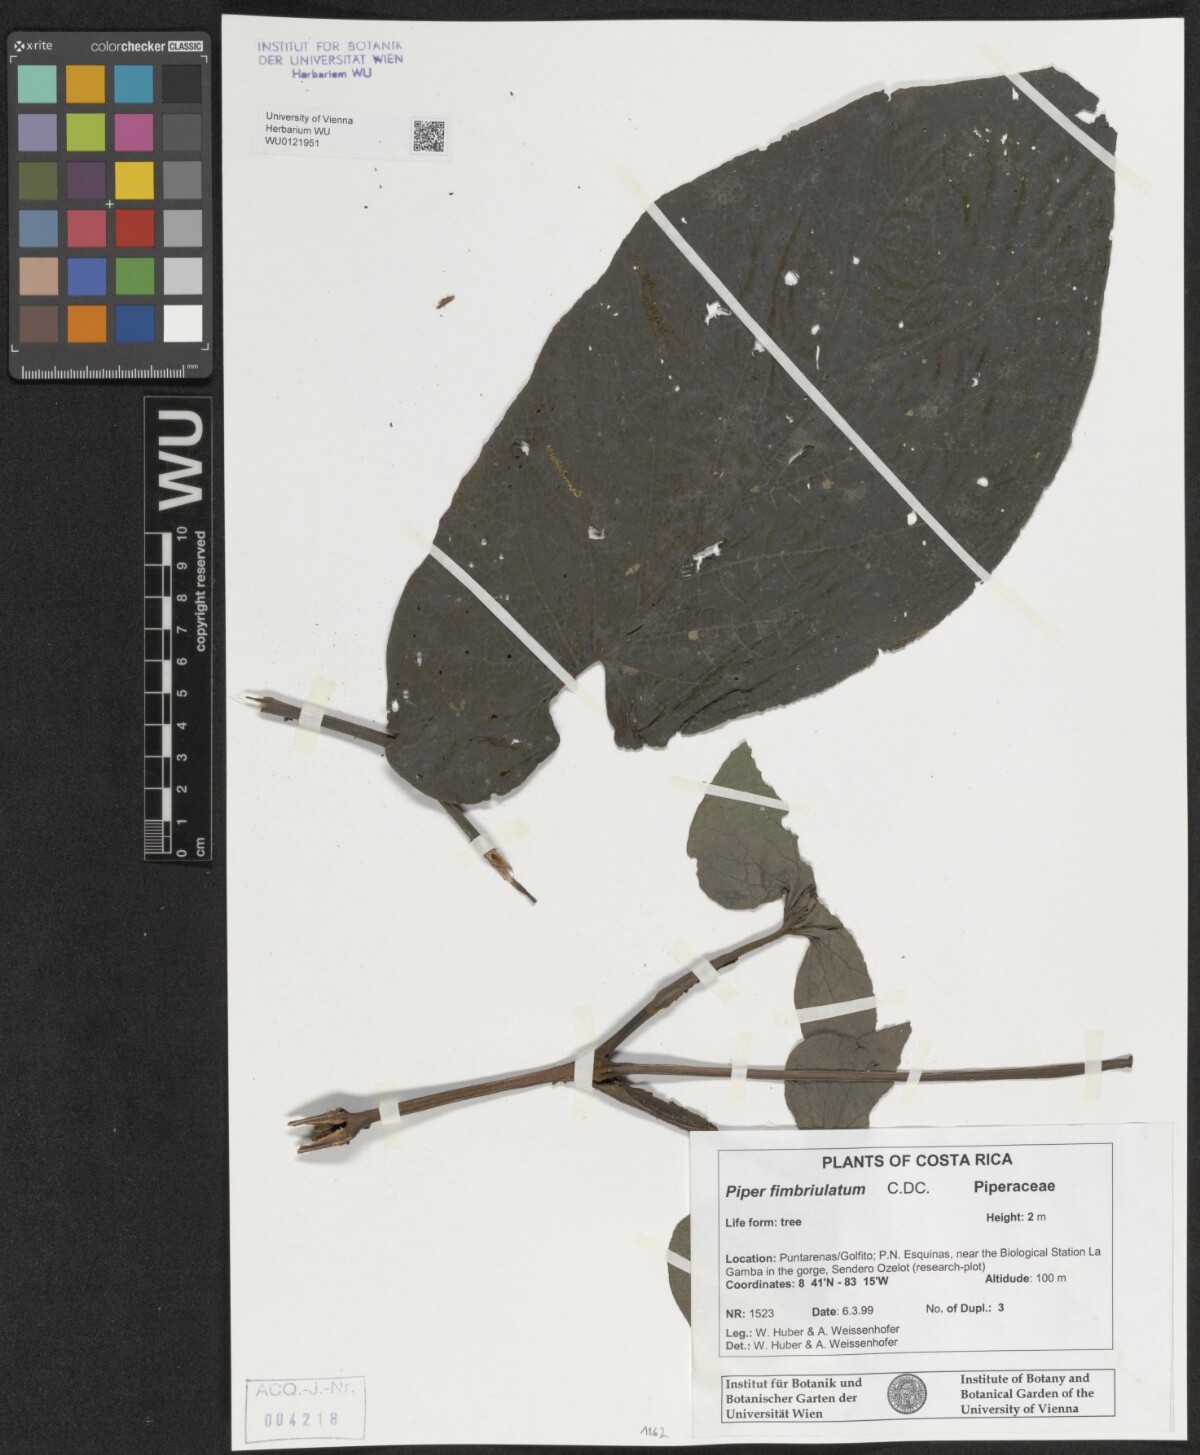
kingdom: Plantae
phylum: Tracheophyta
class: Magnoliopsida
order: Piperales
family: Piperaceae
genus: Piper
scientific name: Piper fimbriulatum
